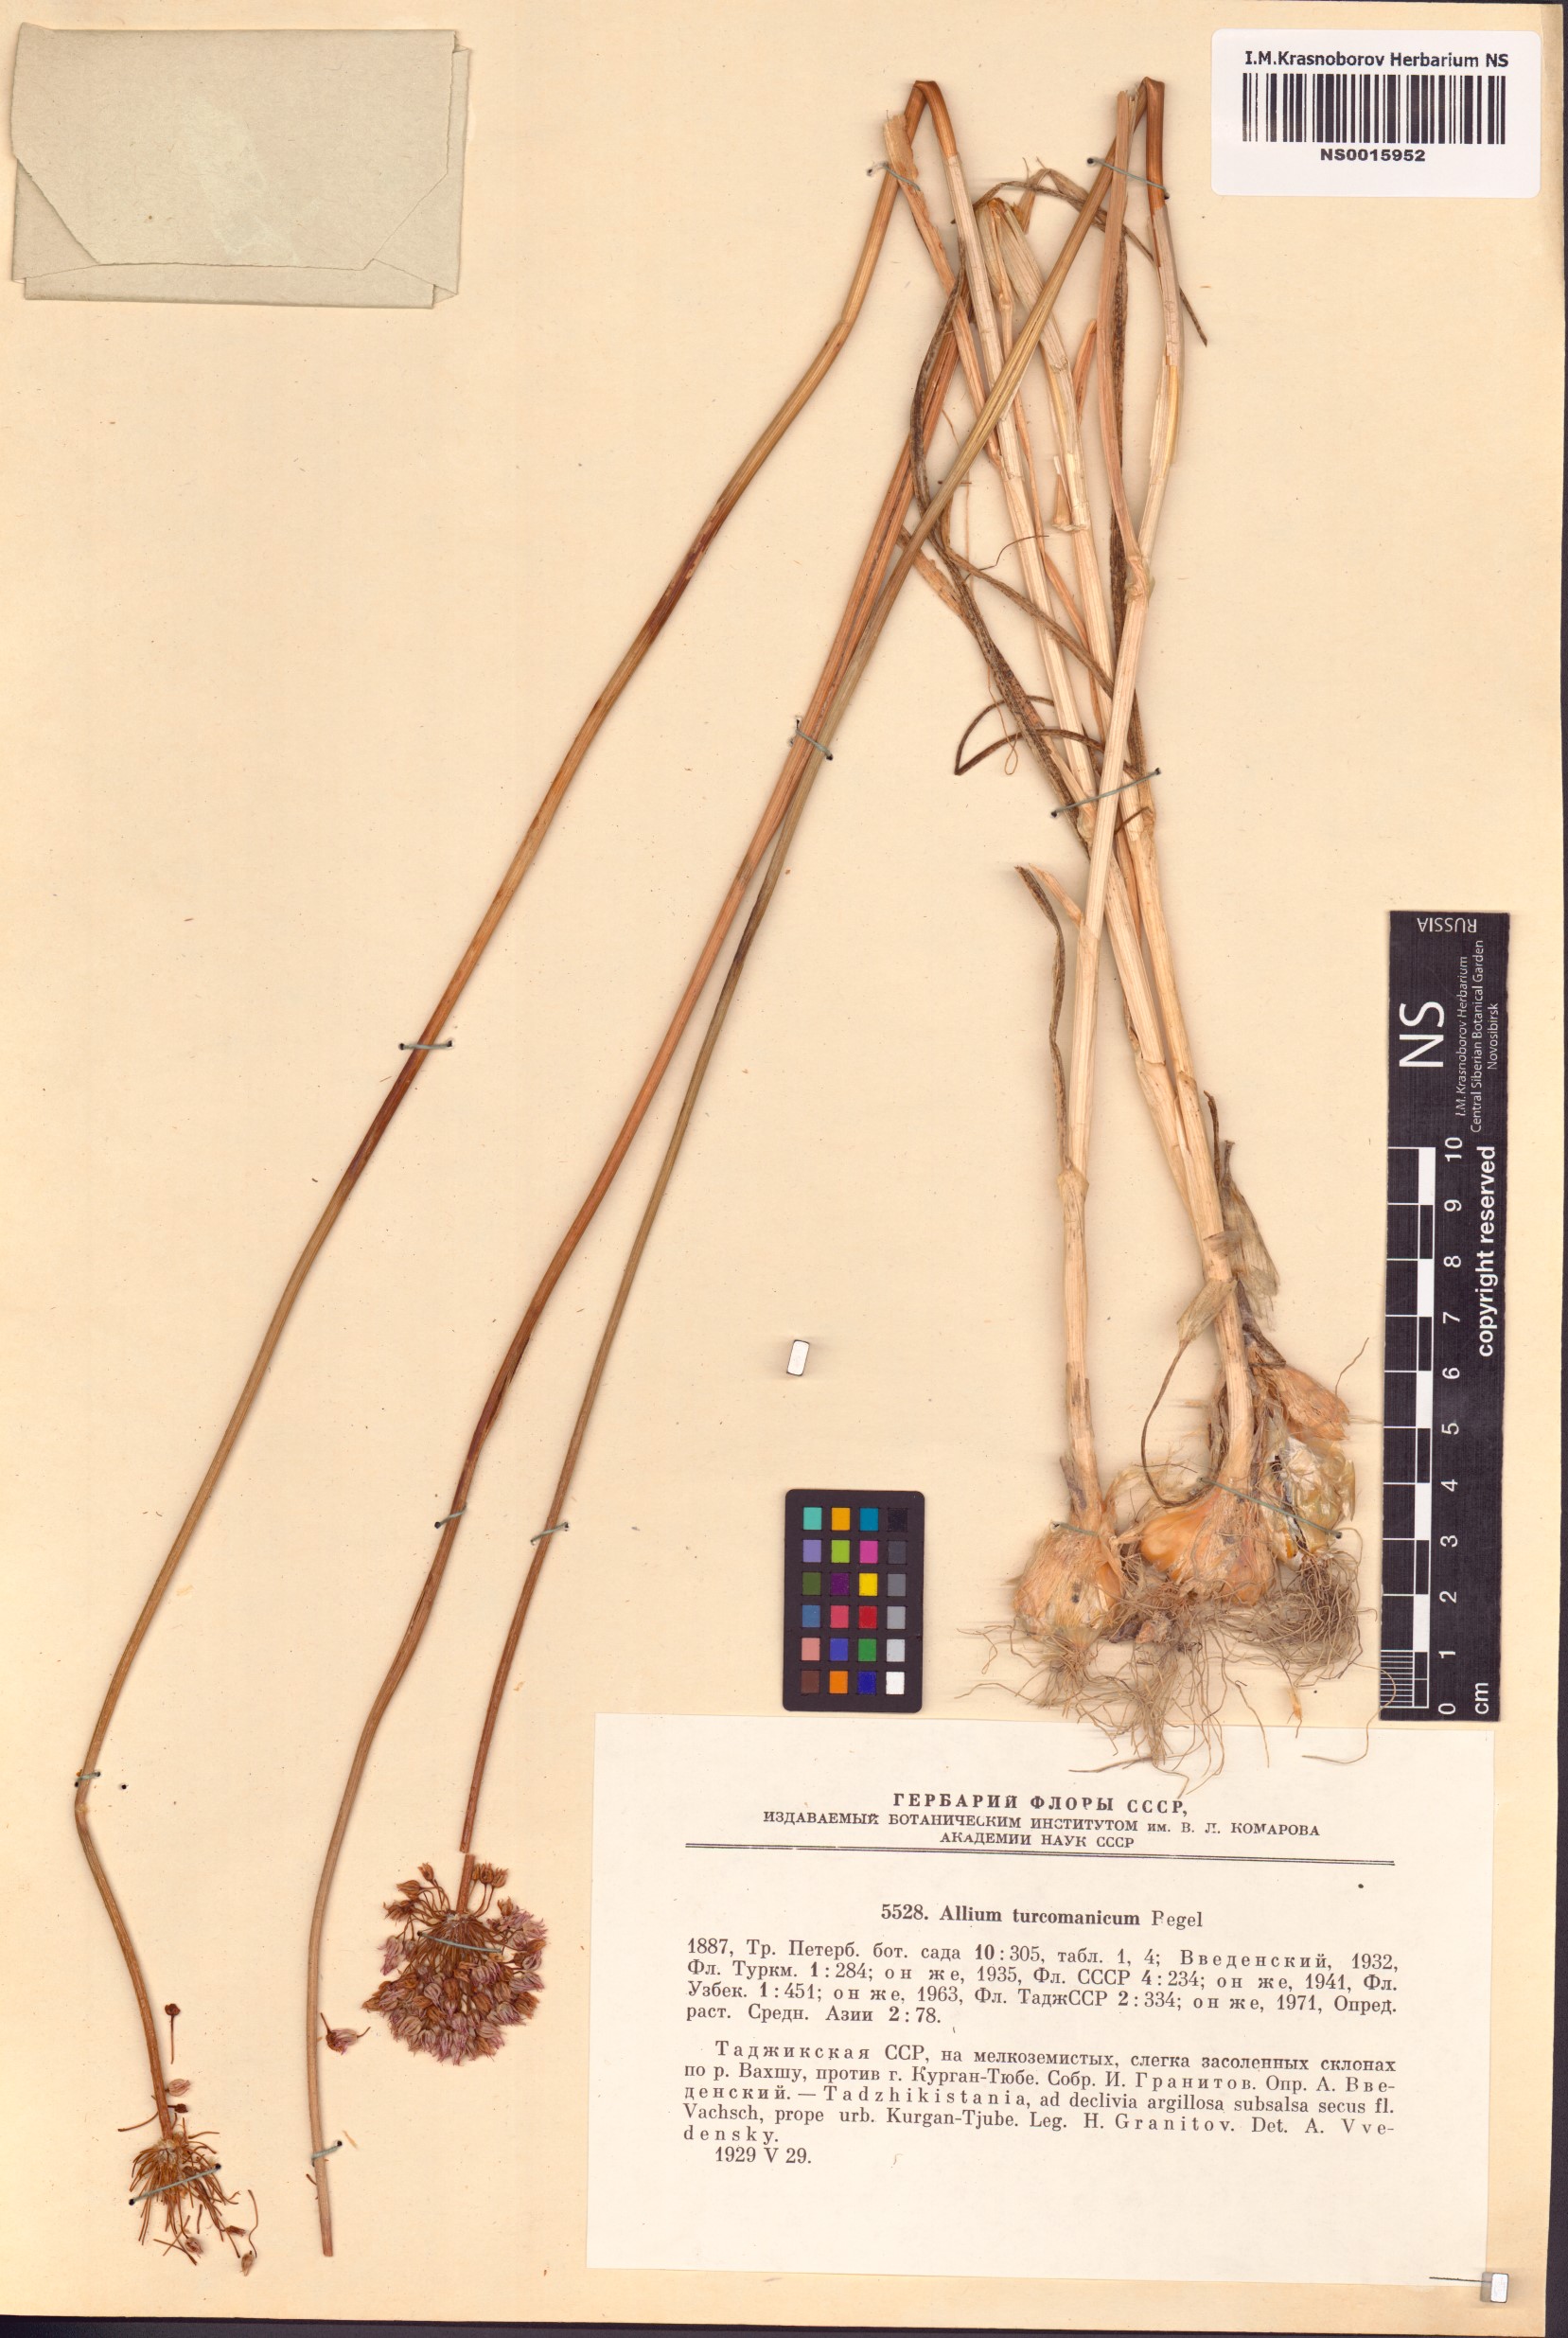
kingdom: Plantae
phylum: Tracheophyta
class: Liliopsida
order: Asparagales
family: Amaryllidaceae
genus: Allium
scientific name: Allium turcomanicum
